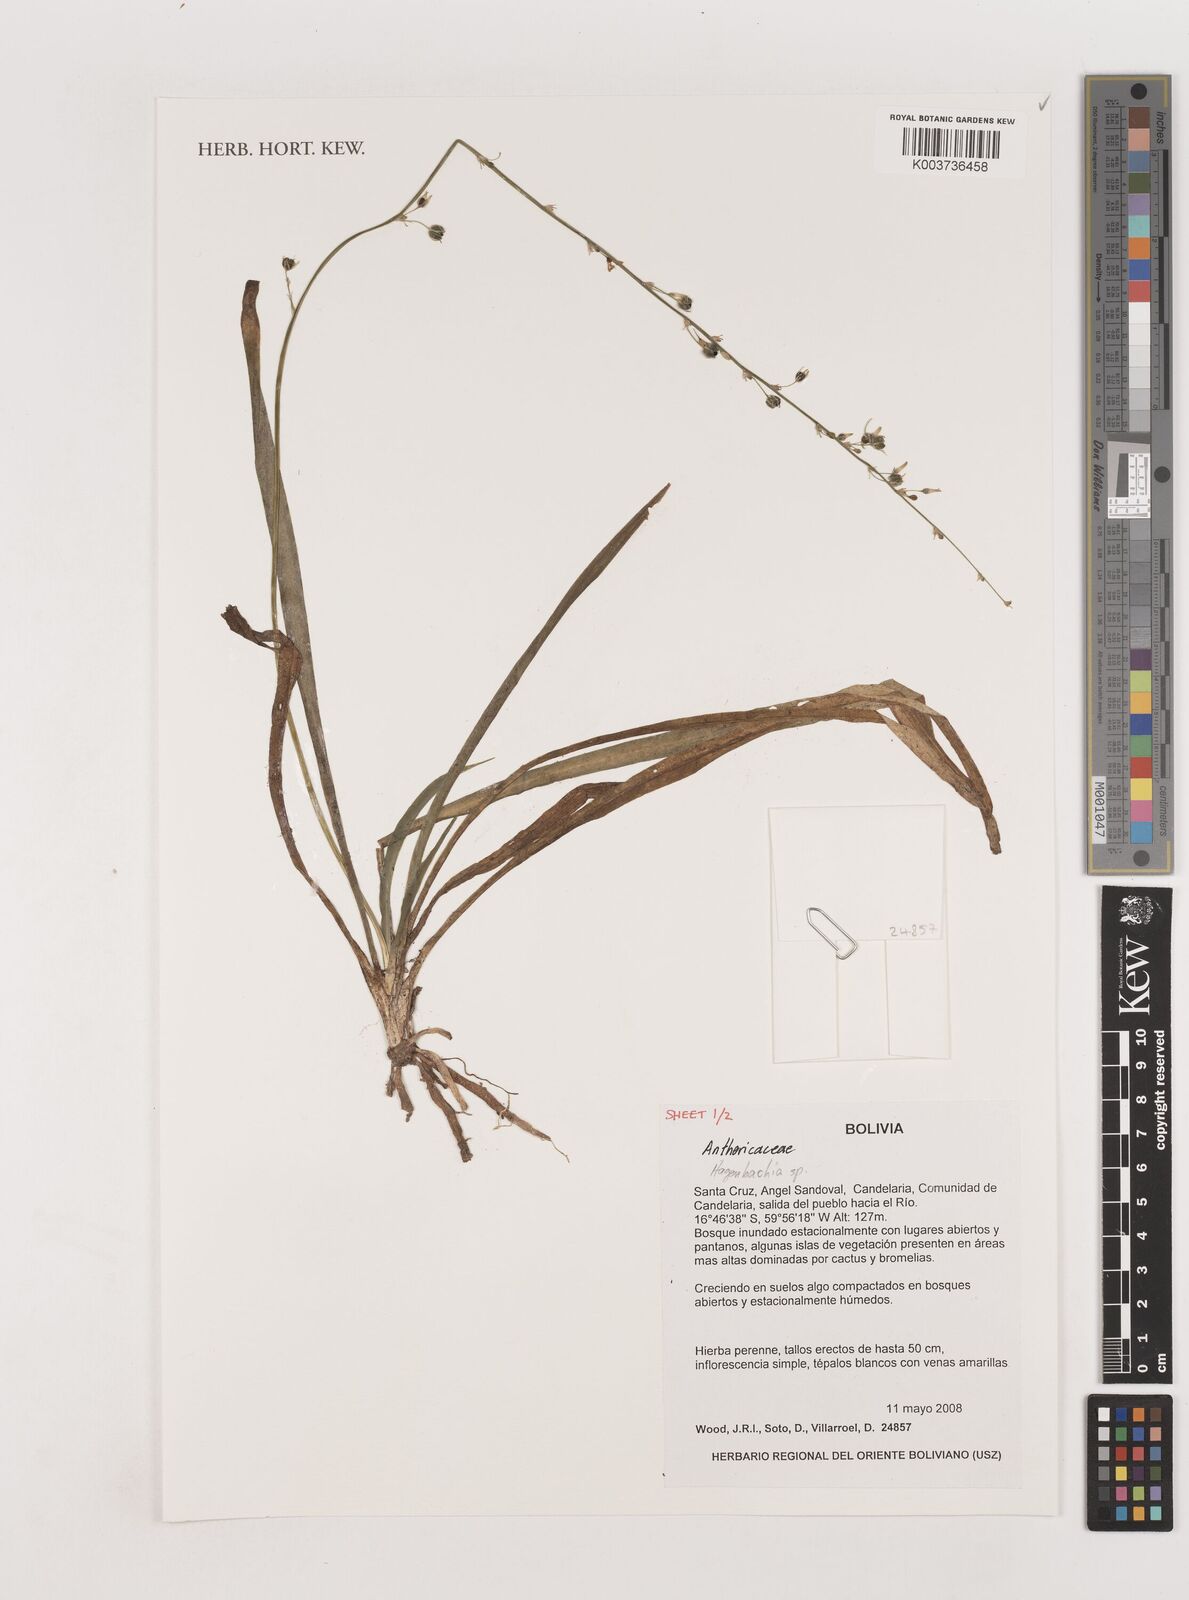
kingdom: Plantae
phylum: Tracheophyta
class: Liliopsida
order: Asparagales
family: Asparagaceae
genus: Hagenbachia
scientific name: Hagenbachia
